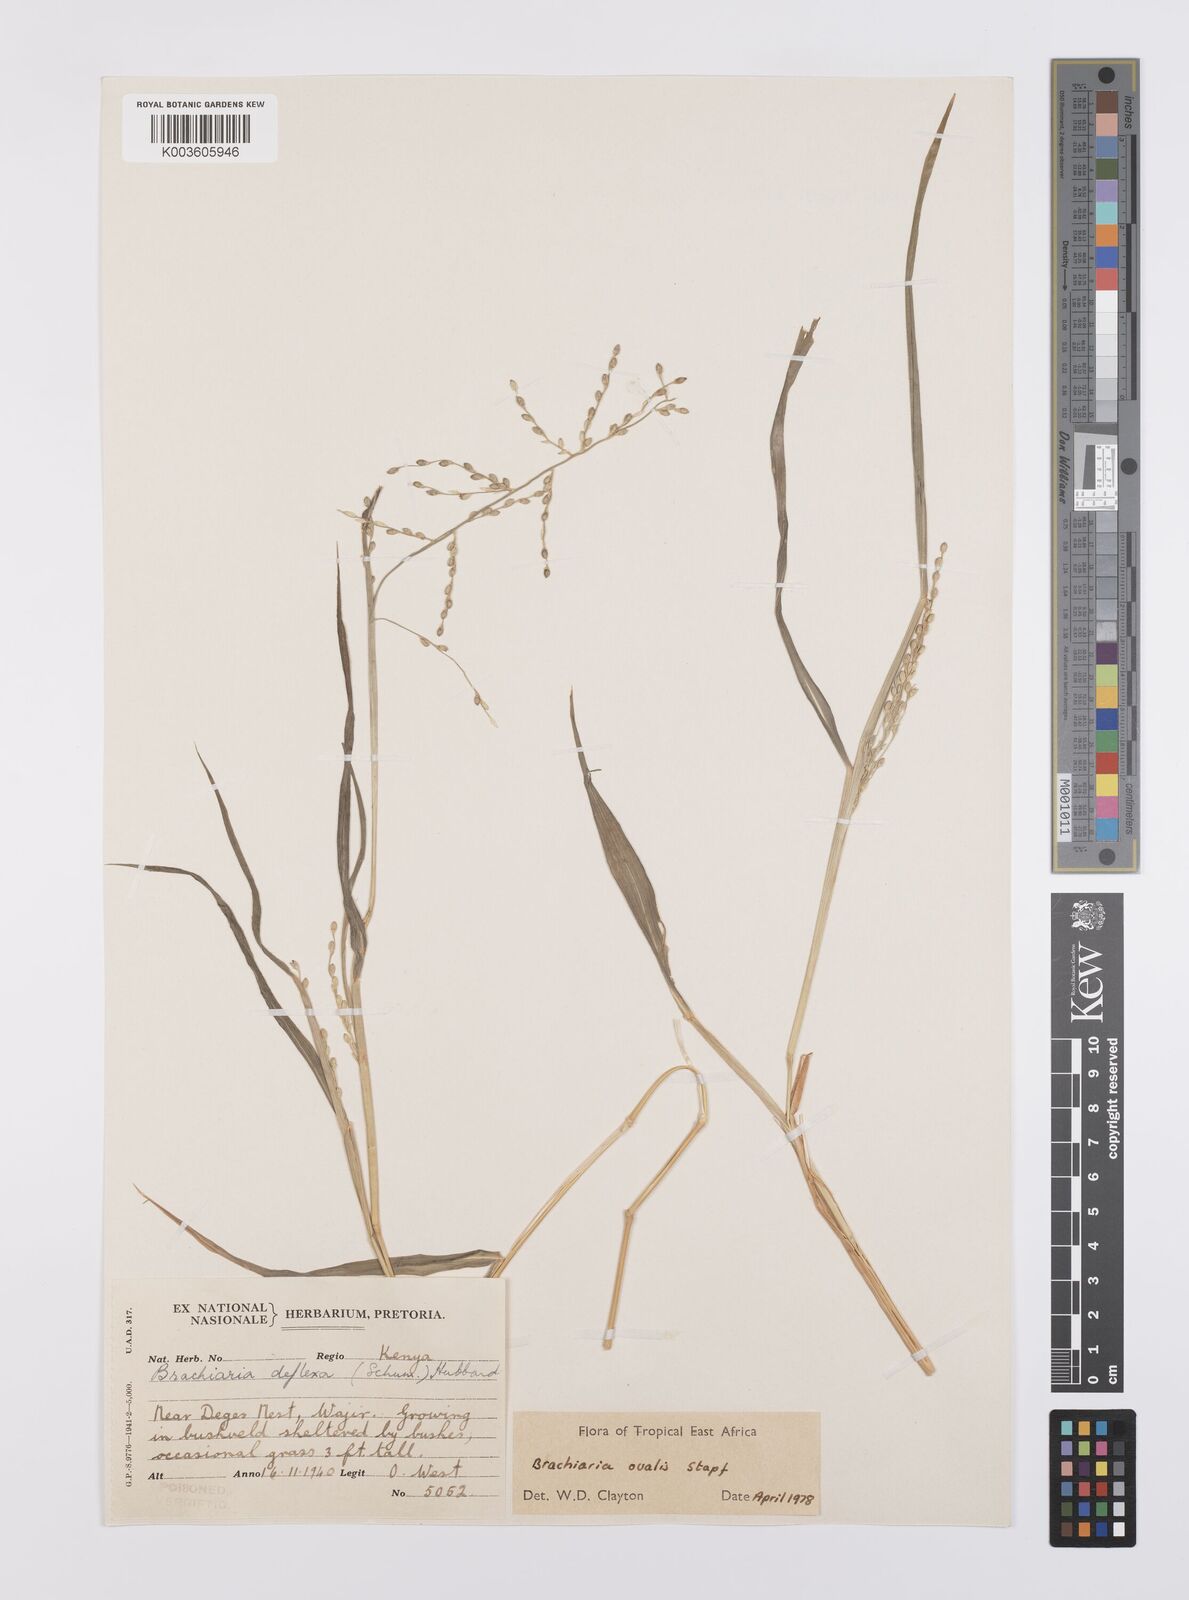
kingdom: Plantae
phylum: Tracheophyta
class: Liliopsida
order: Poales
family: Poaceae
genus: Urochloa
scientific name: Urochloa ovalis
